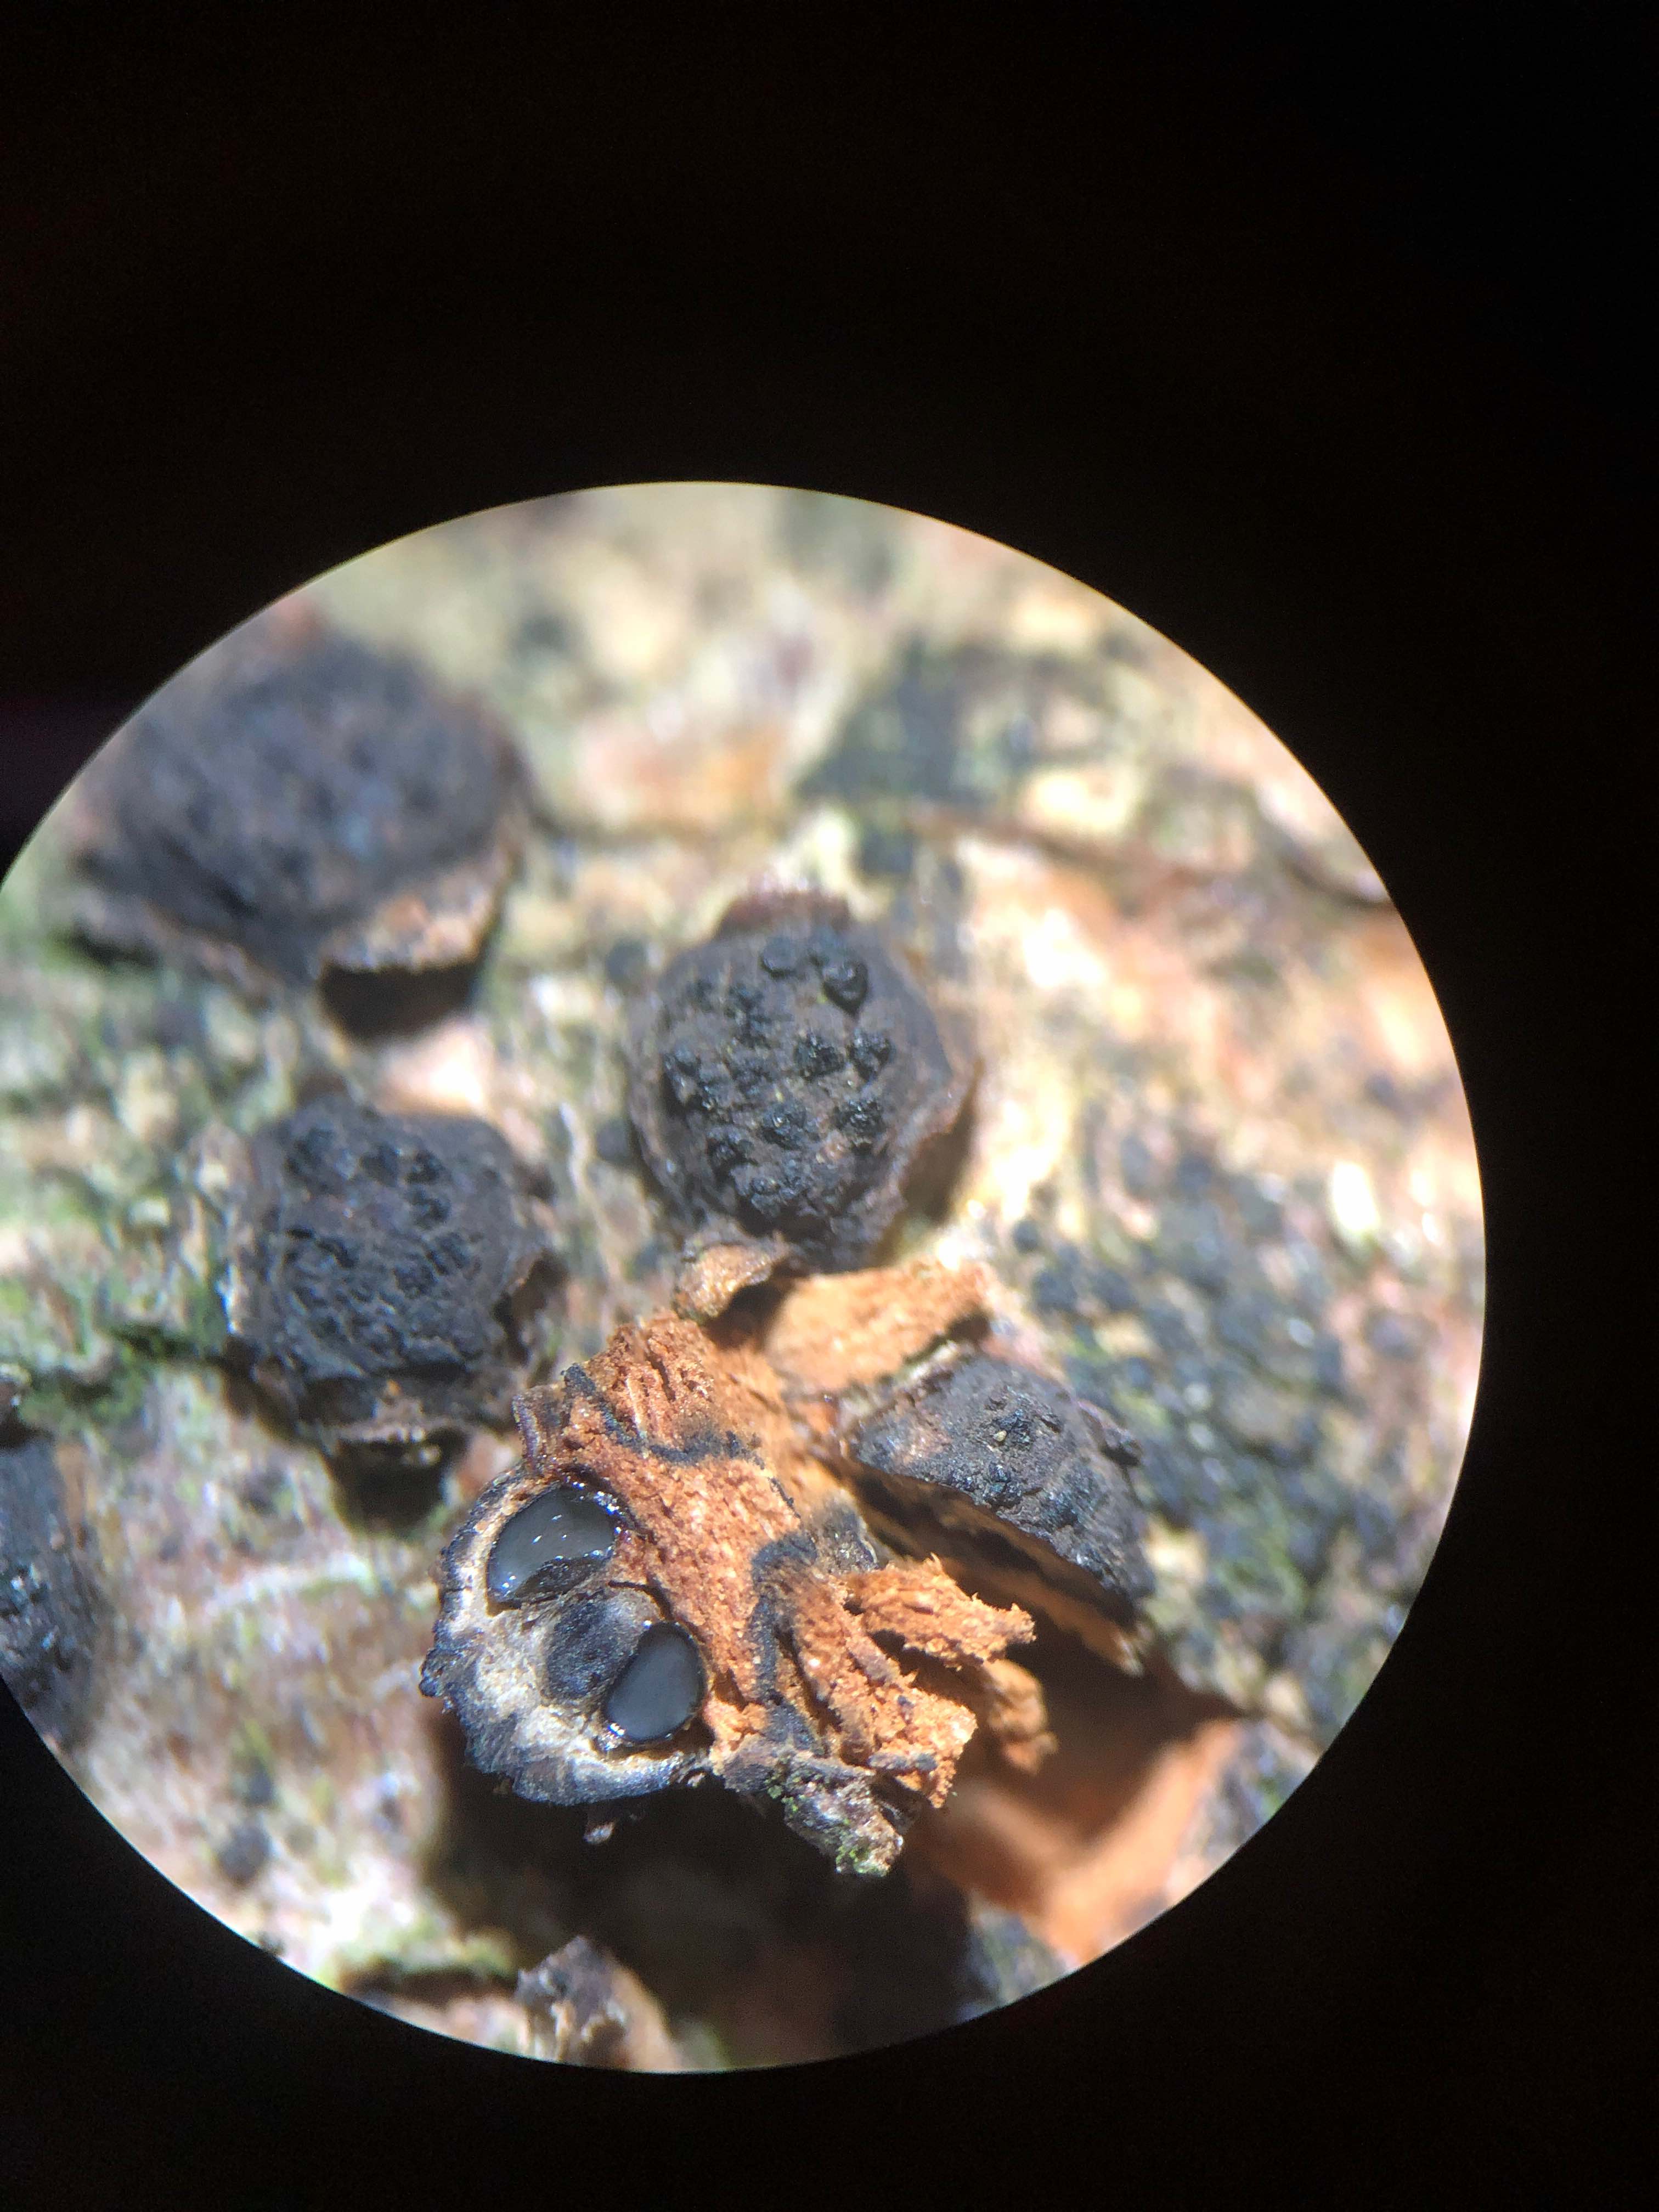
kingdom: Fungi
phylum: Ascomycota
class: Sordariomycetes
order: Xylariales
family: Diatrypaceae
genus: Diatrypella
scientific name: Diatrypella quercina
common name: ege-kulskorpe
